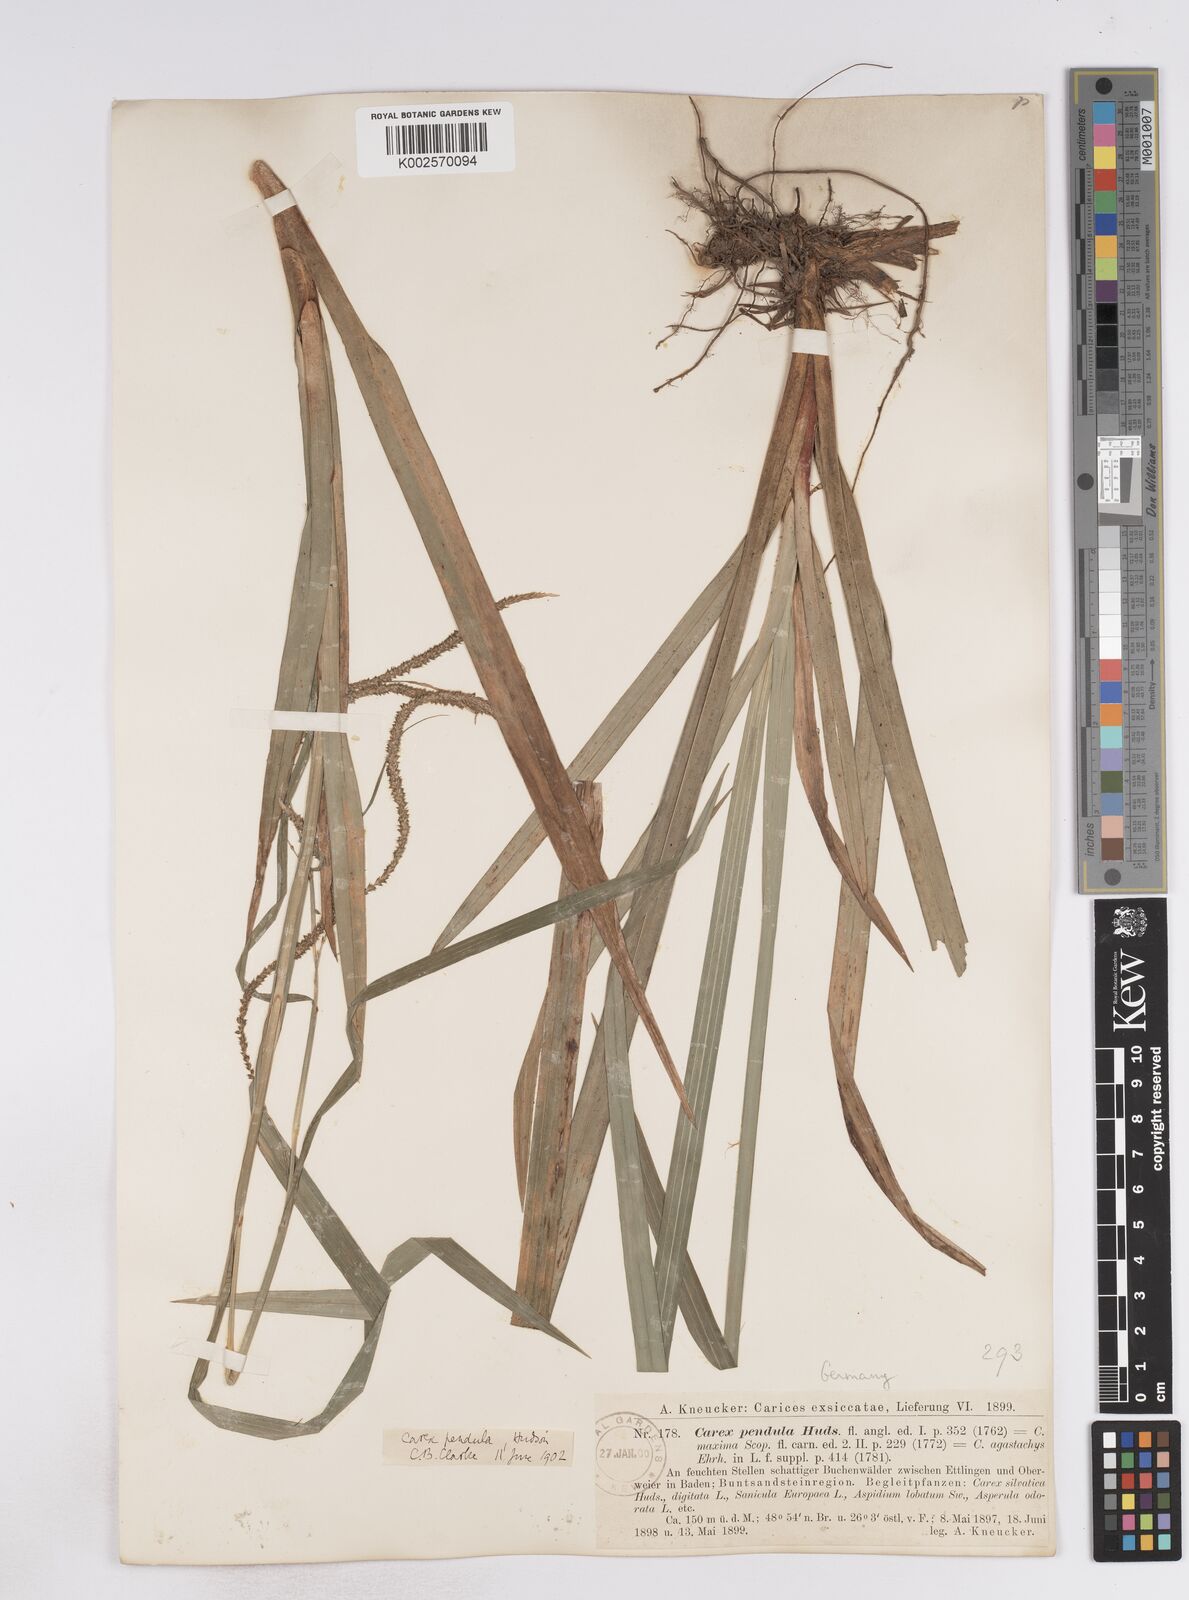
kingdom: Plantae
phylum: Tracheophyta
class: Liliopsida
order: Poales
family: Cyperaceae
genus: Carex
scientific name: Carex pendula
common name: Pendulous sedge
